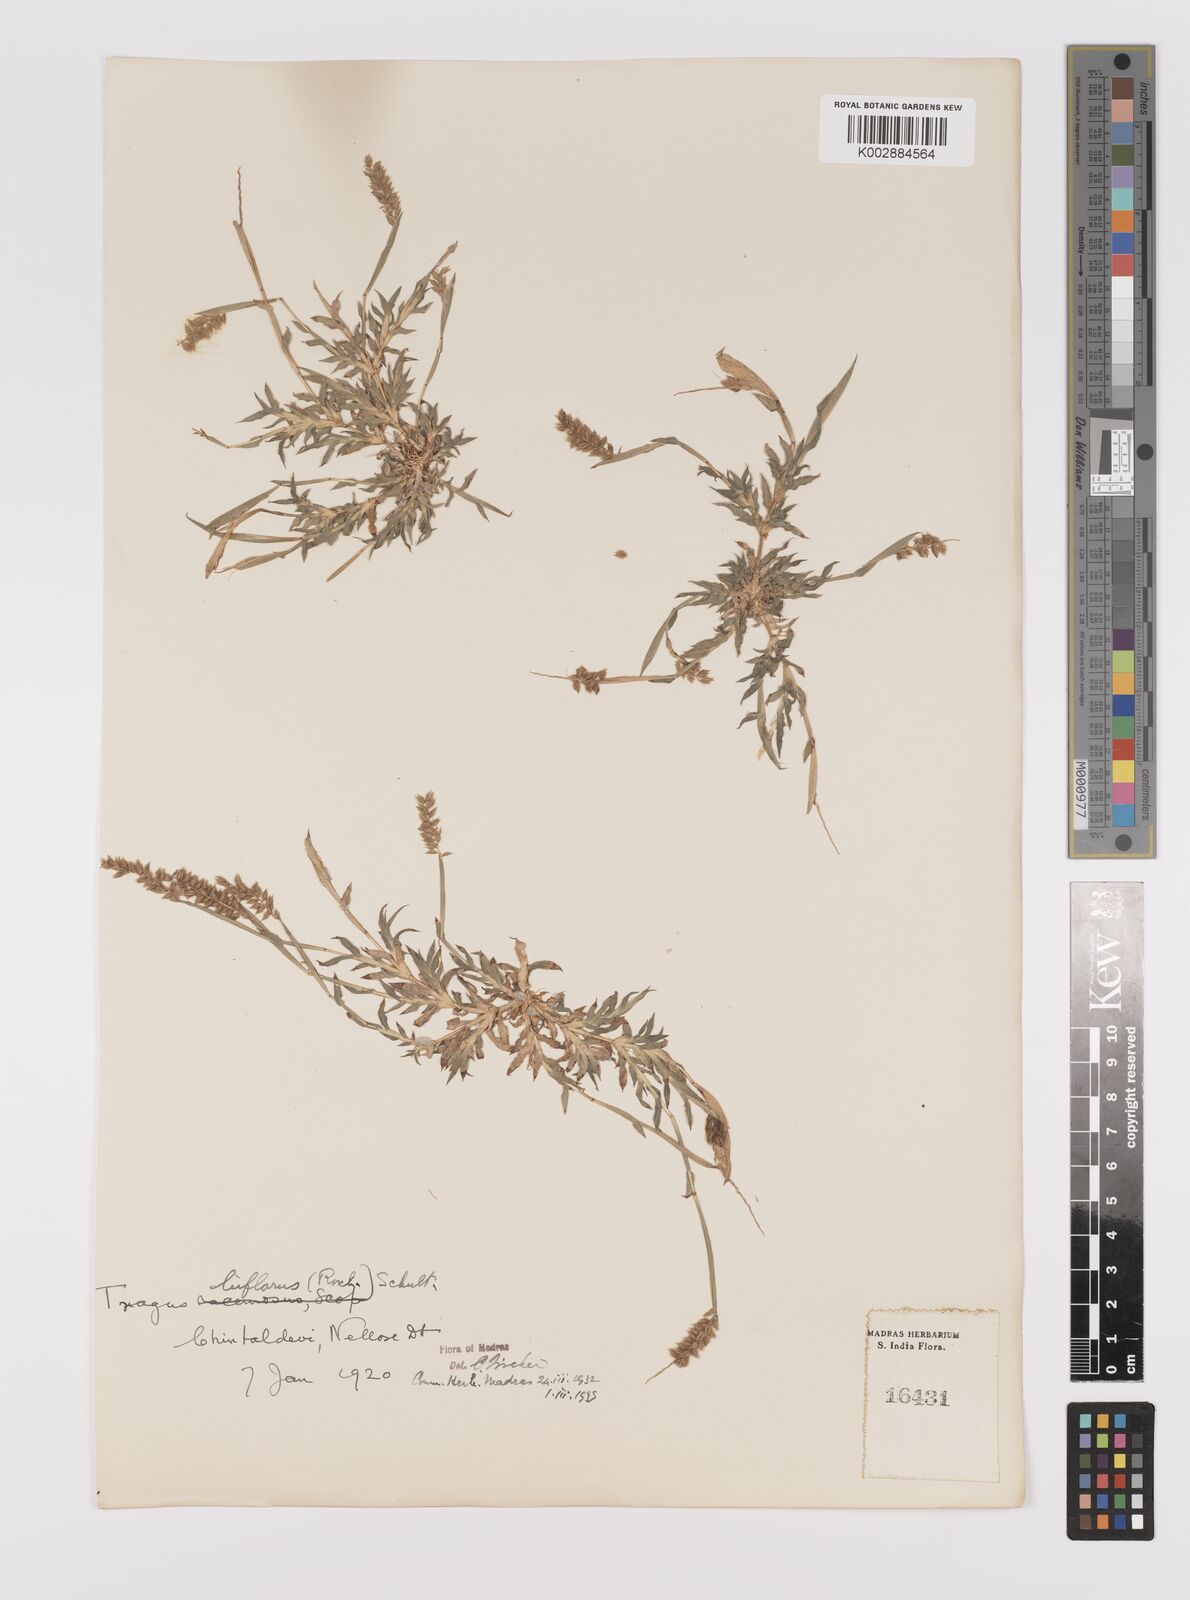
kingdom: Plantae
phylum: Tracheophyta
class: Liliopsida
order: Poales
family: Poaceae
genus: Tragus
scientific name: Tragus mongolorum
